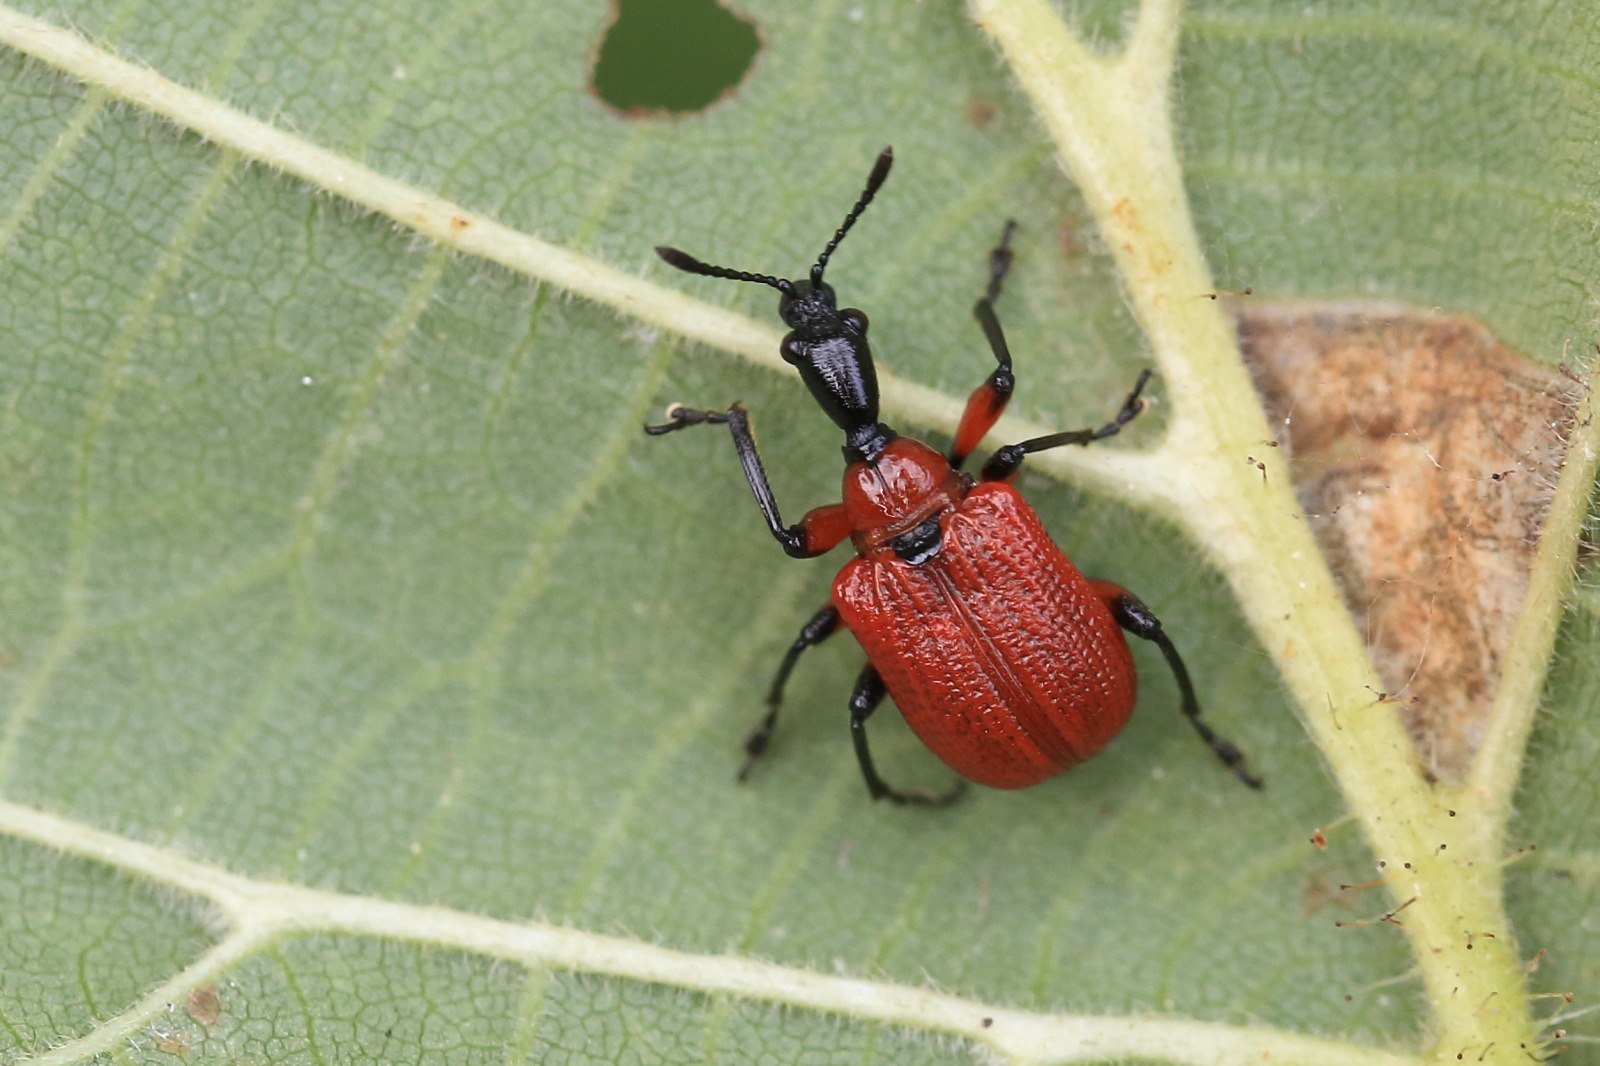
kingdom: Animalia
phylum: Arthropoda
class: Insecta
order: Coleoptera
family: Attelabidae
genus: Apoderus
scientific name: Apoderus coryli
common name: Hasselbladruller
